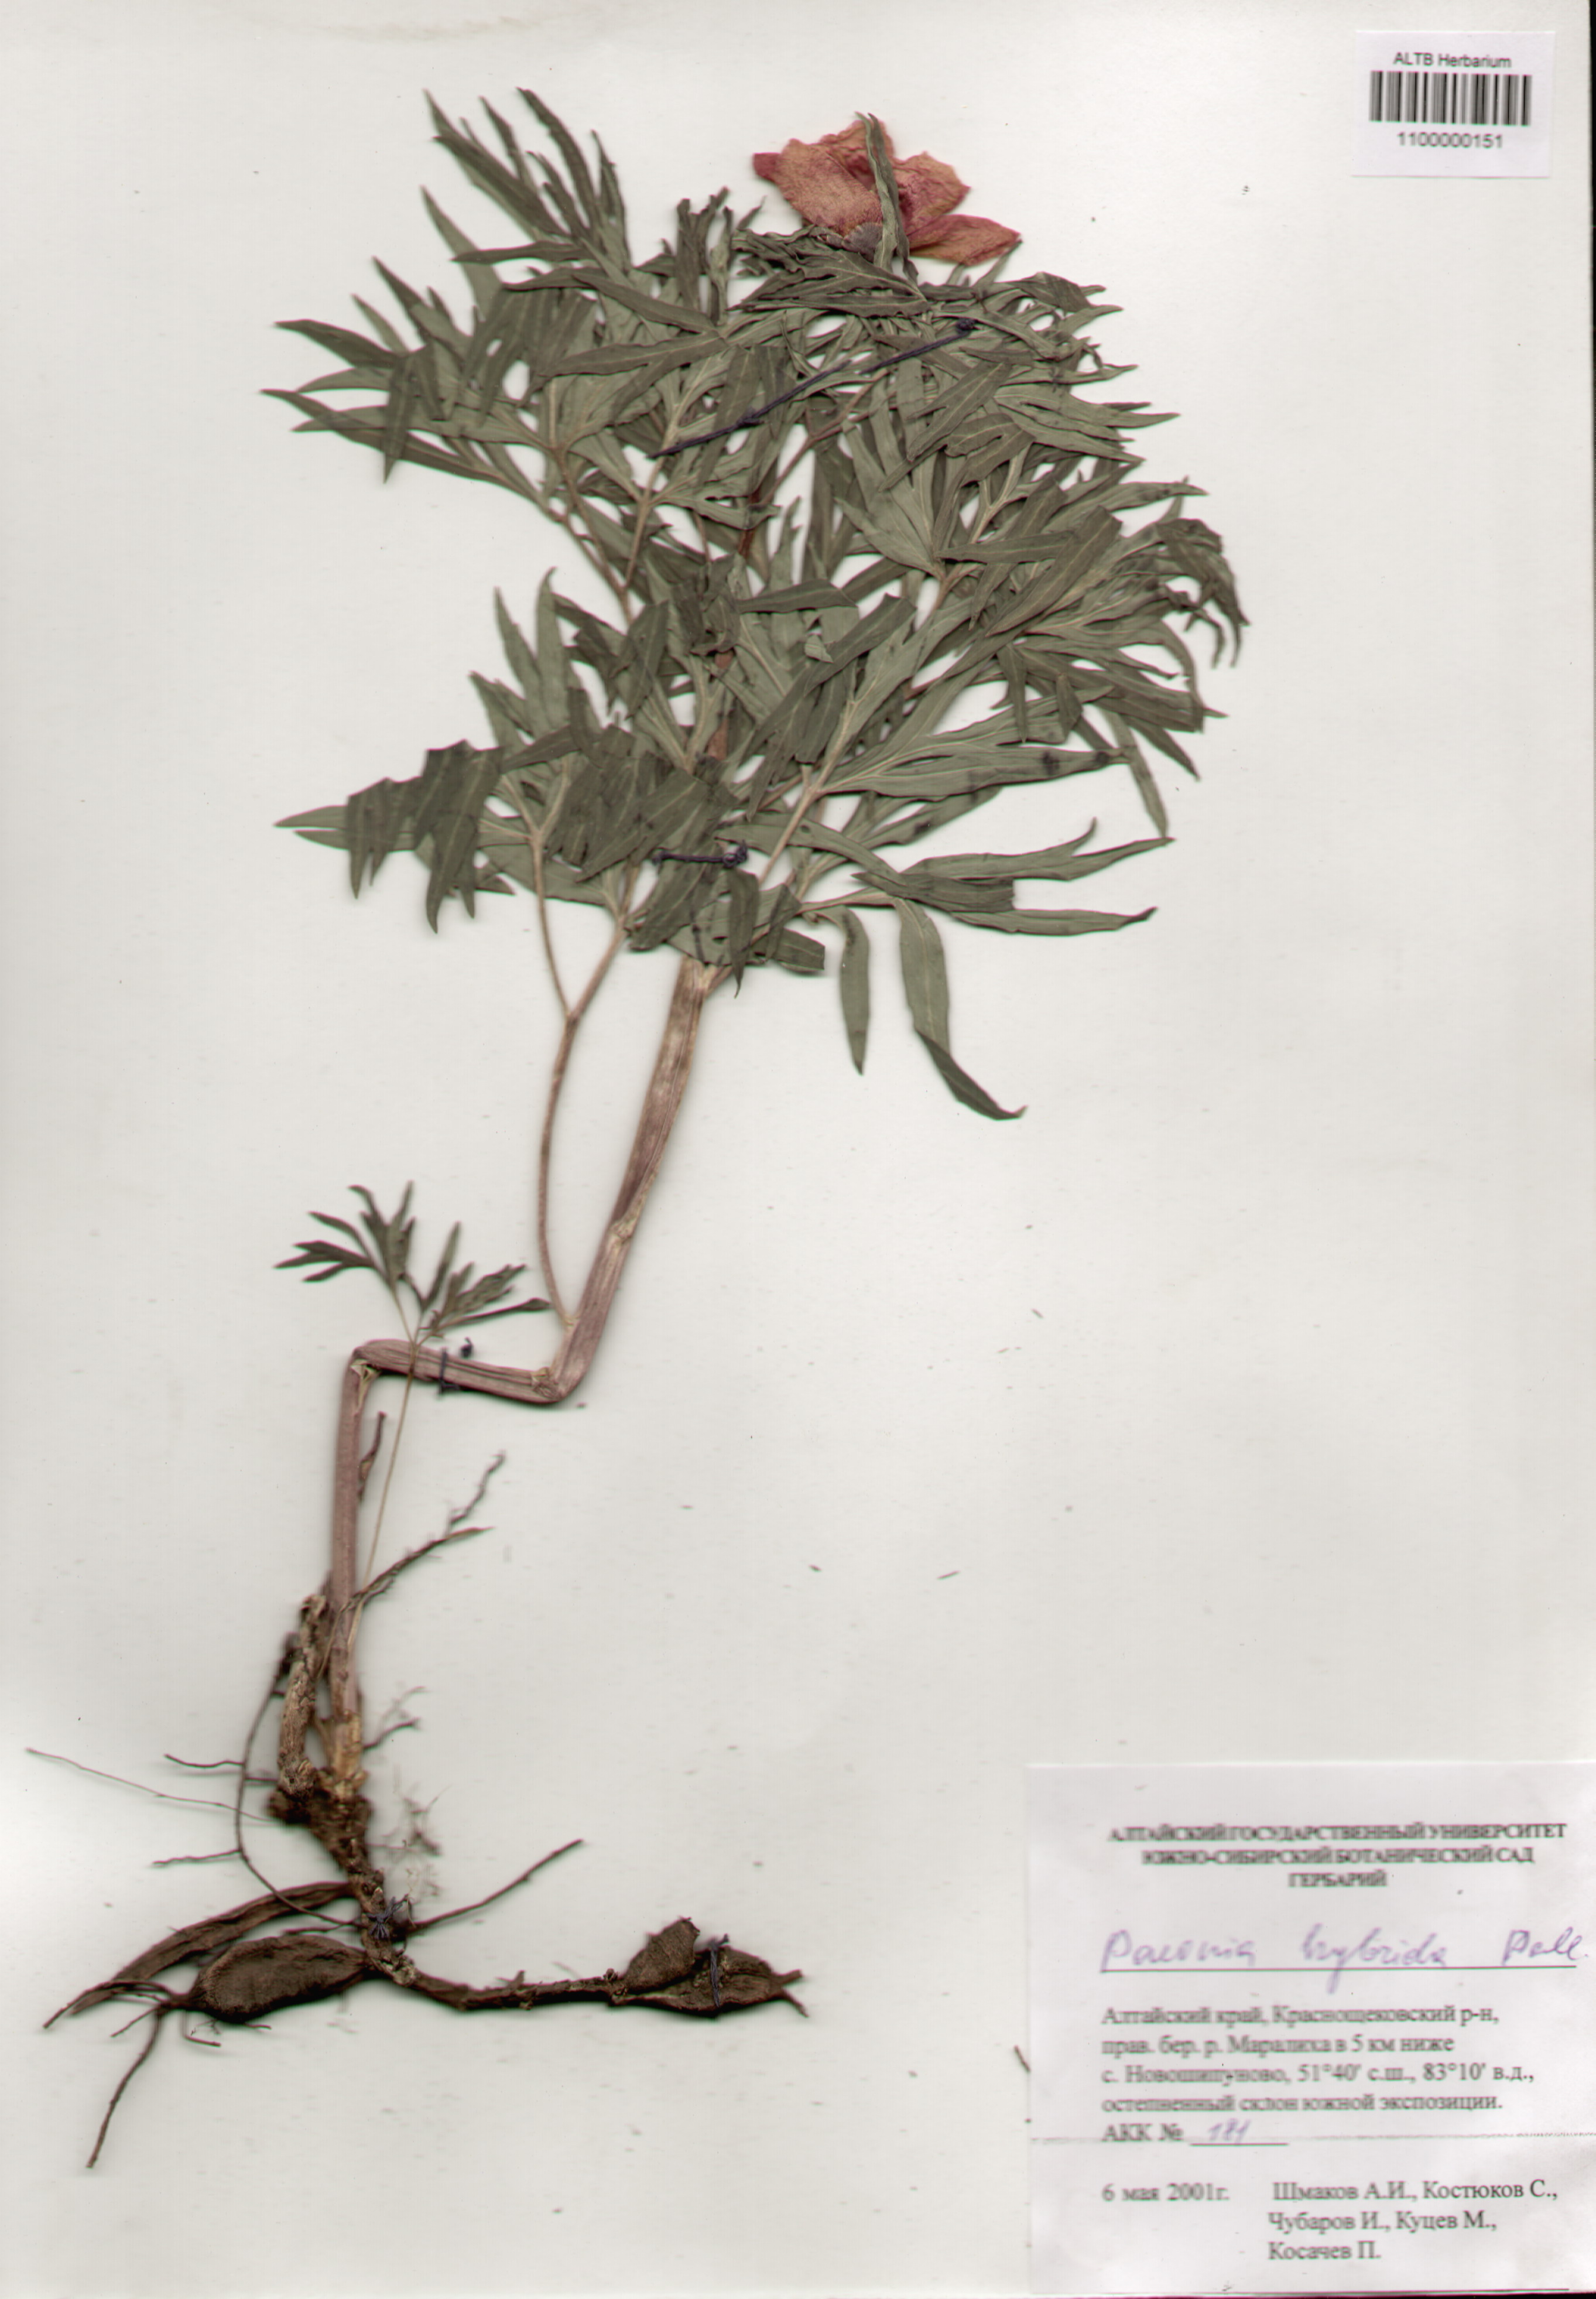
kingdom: Plantae
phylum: Tracheophyta
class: Magnoliopsida
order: Saxifragales
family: Paeoniaceae
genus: Paeonia
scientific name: Paeonia
